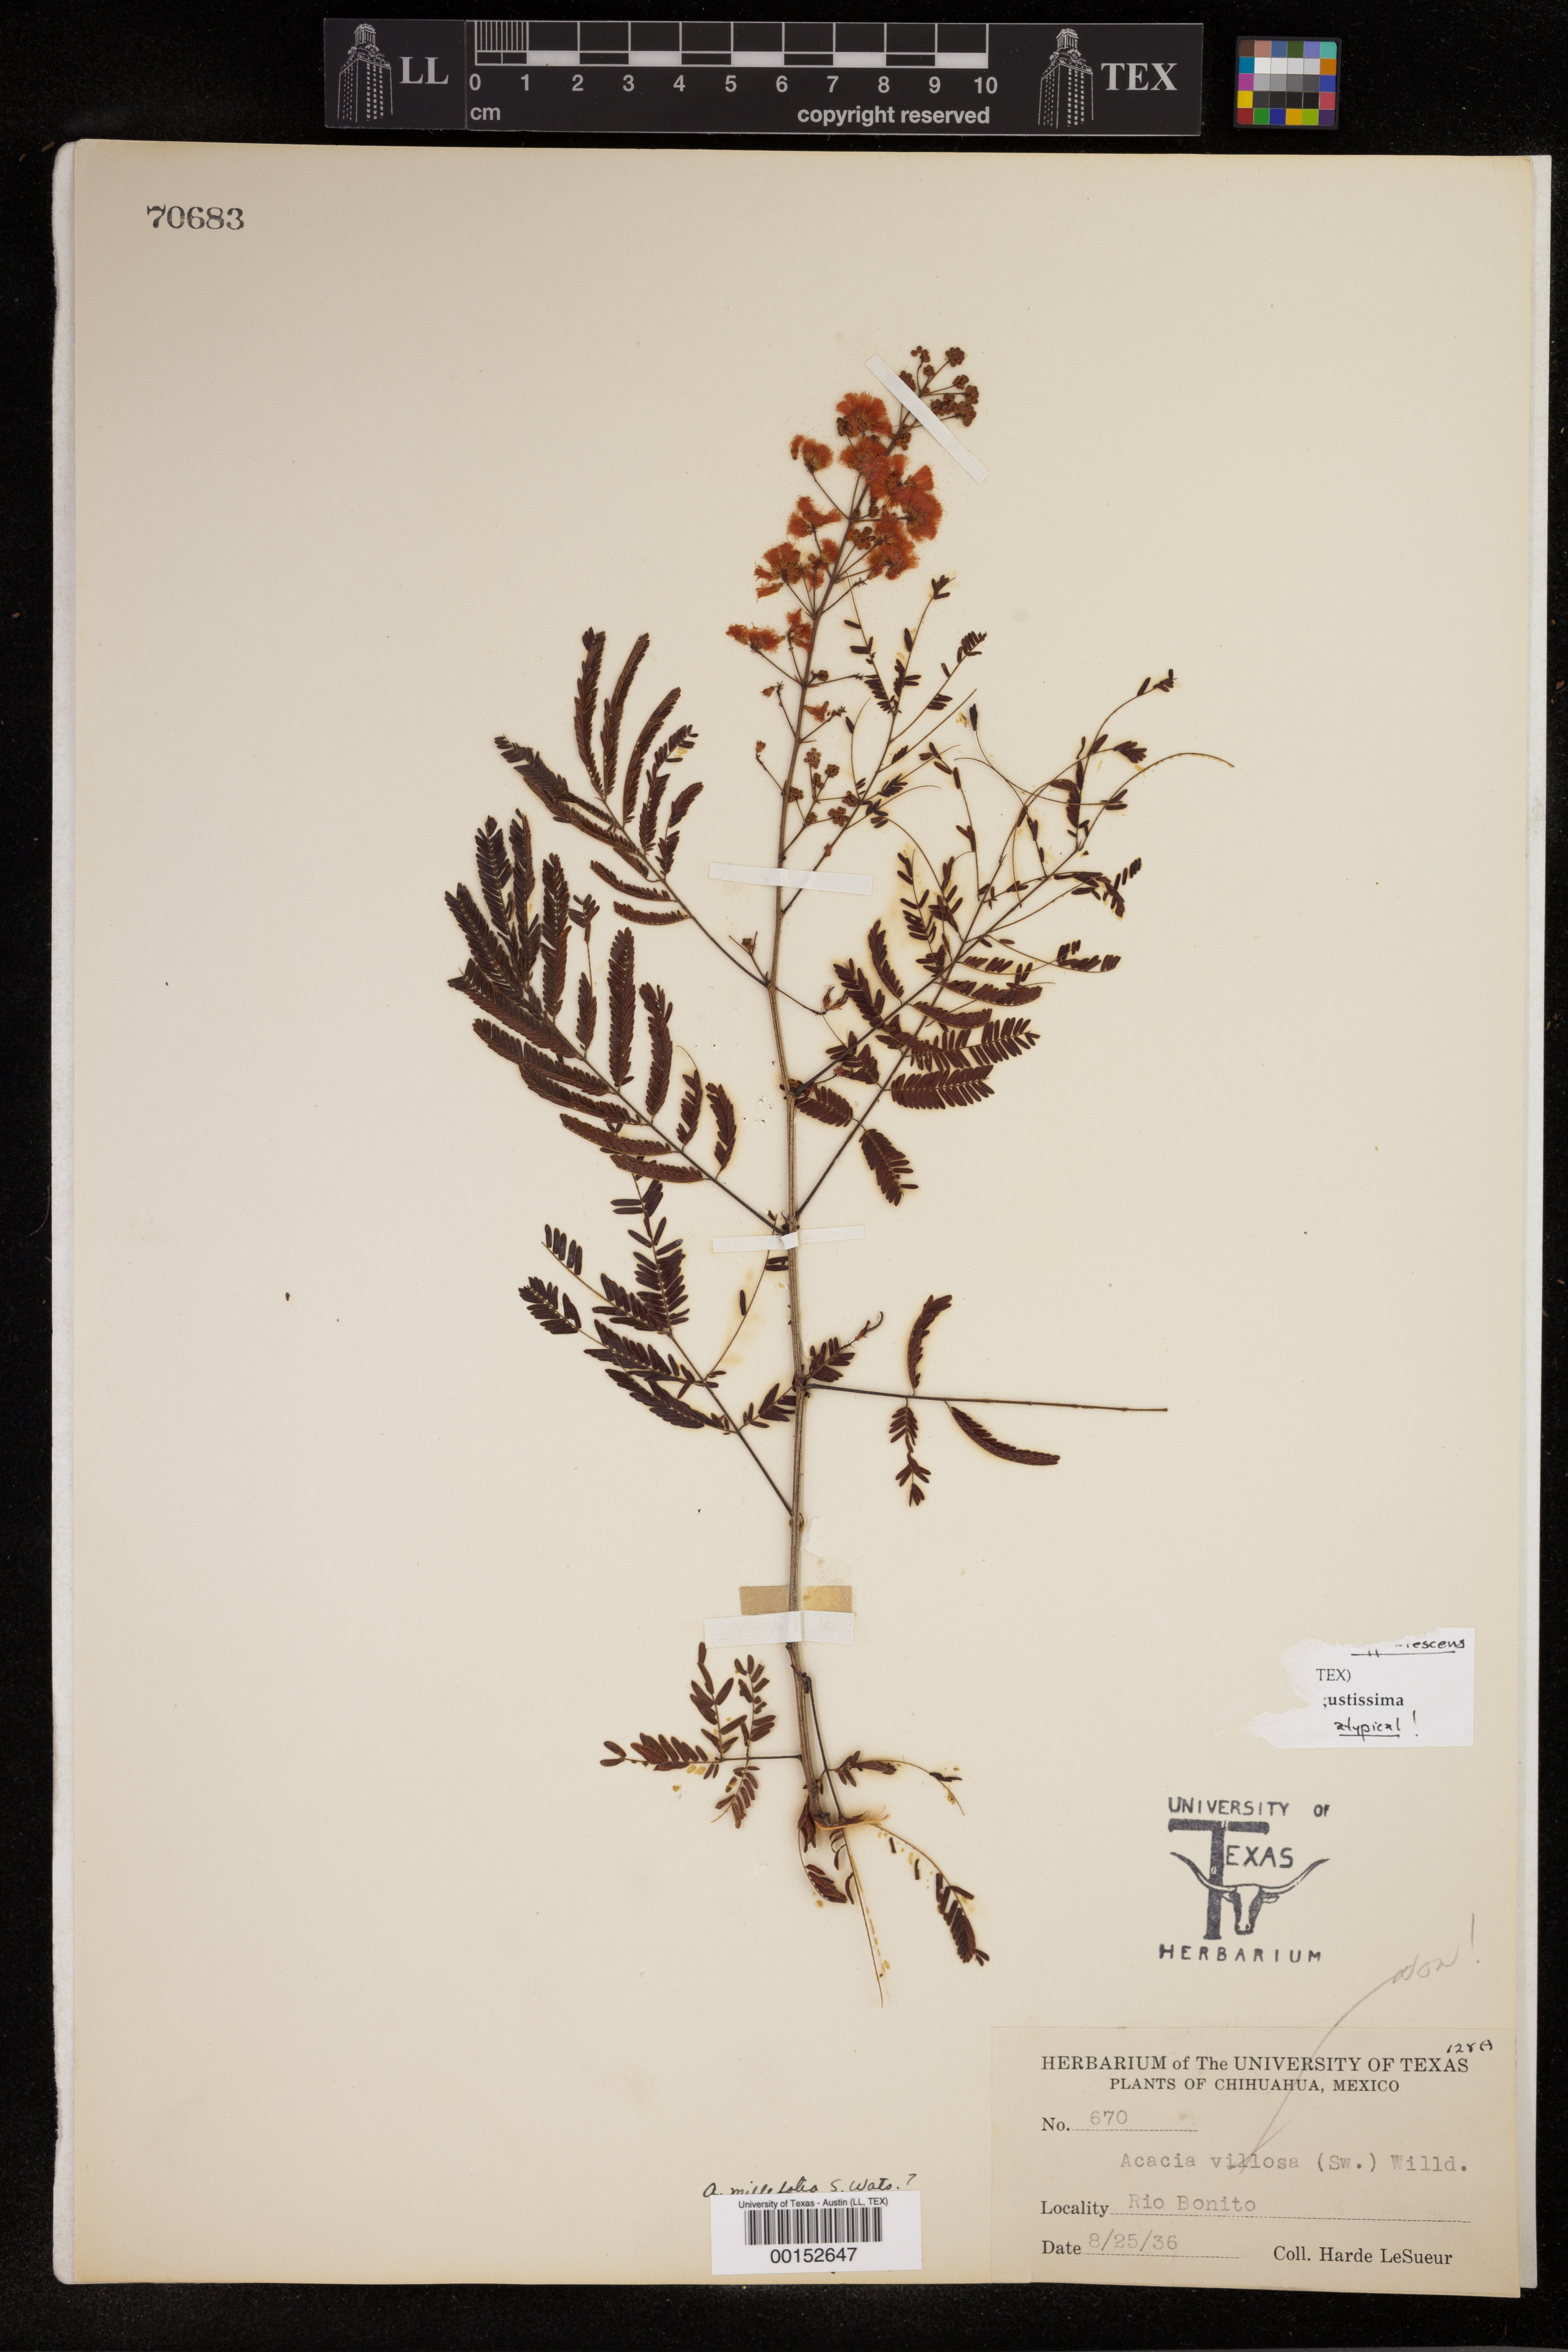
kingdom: Plantae
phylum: Tracheophyta
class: Magnoliopsida
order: Fabales
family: Fabaceae
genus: Acaciella
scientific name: Acaciella angustissima
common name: Prairie acacia
